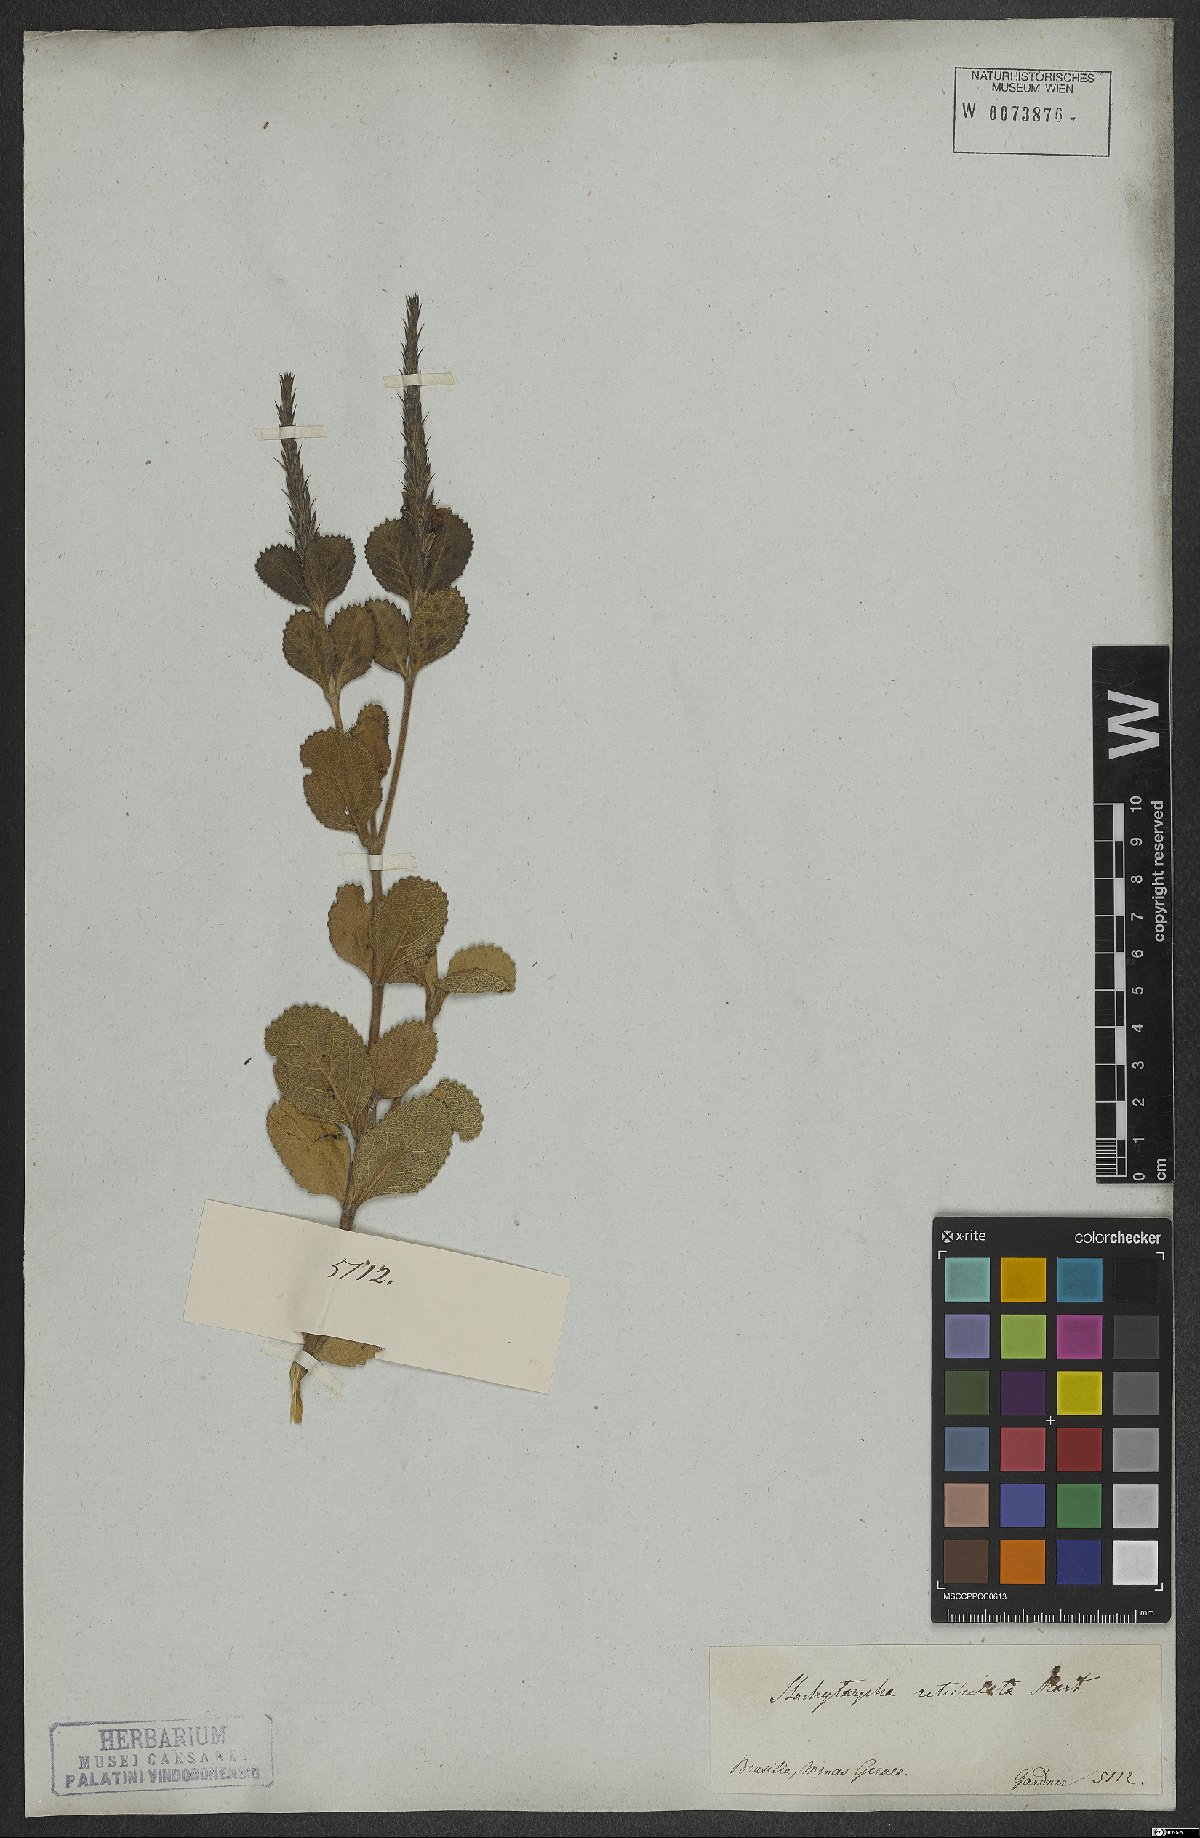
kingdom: Plantae
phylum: Tracheophyta
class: Magnoliopsida
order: Lamiales
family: Verbenaceae
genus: Stachytarpheta
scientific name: Stachytarpheta reticulata
